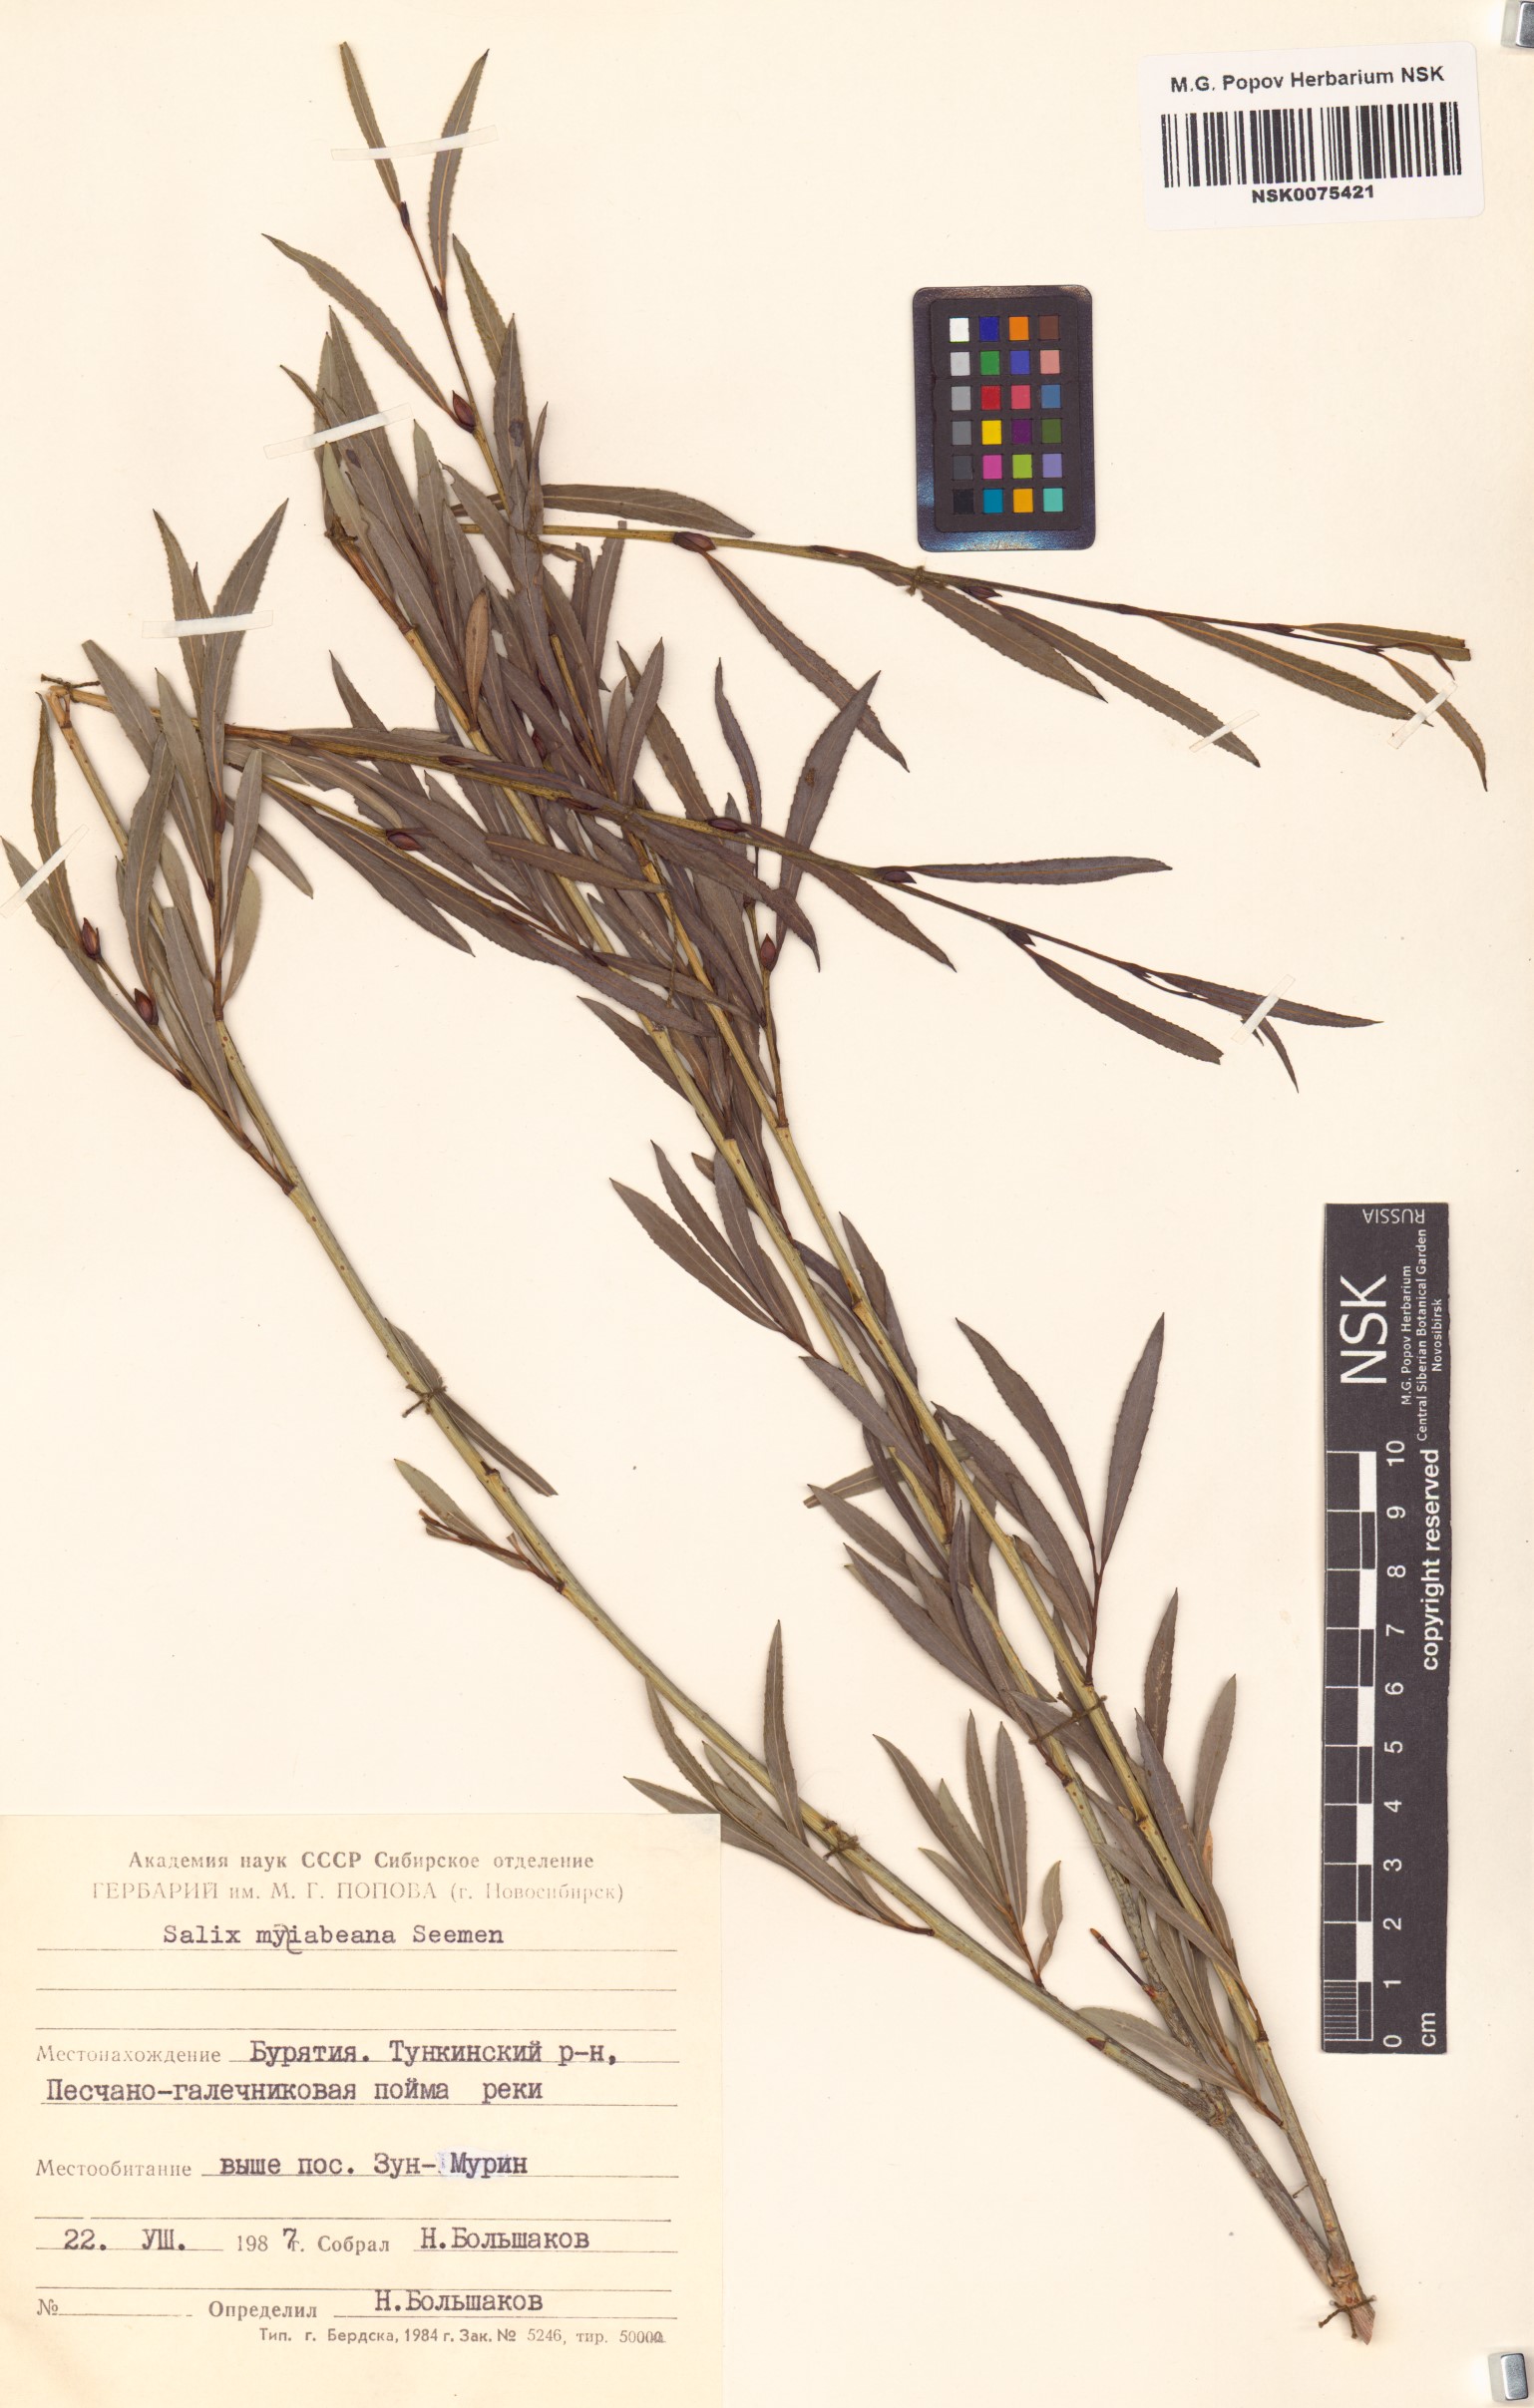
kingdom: Plantae
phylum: Tracheophyta
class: Magnoliopsida
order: Malpighiales
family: Salicaceae
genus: Salix
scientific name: Salix miyabeana
